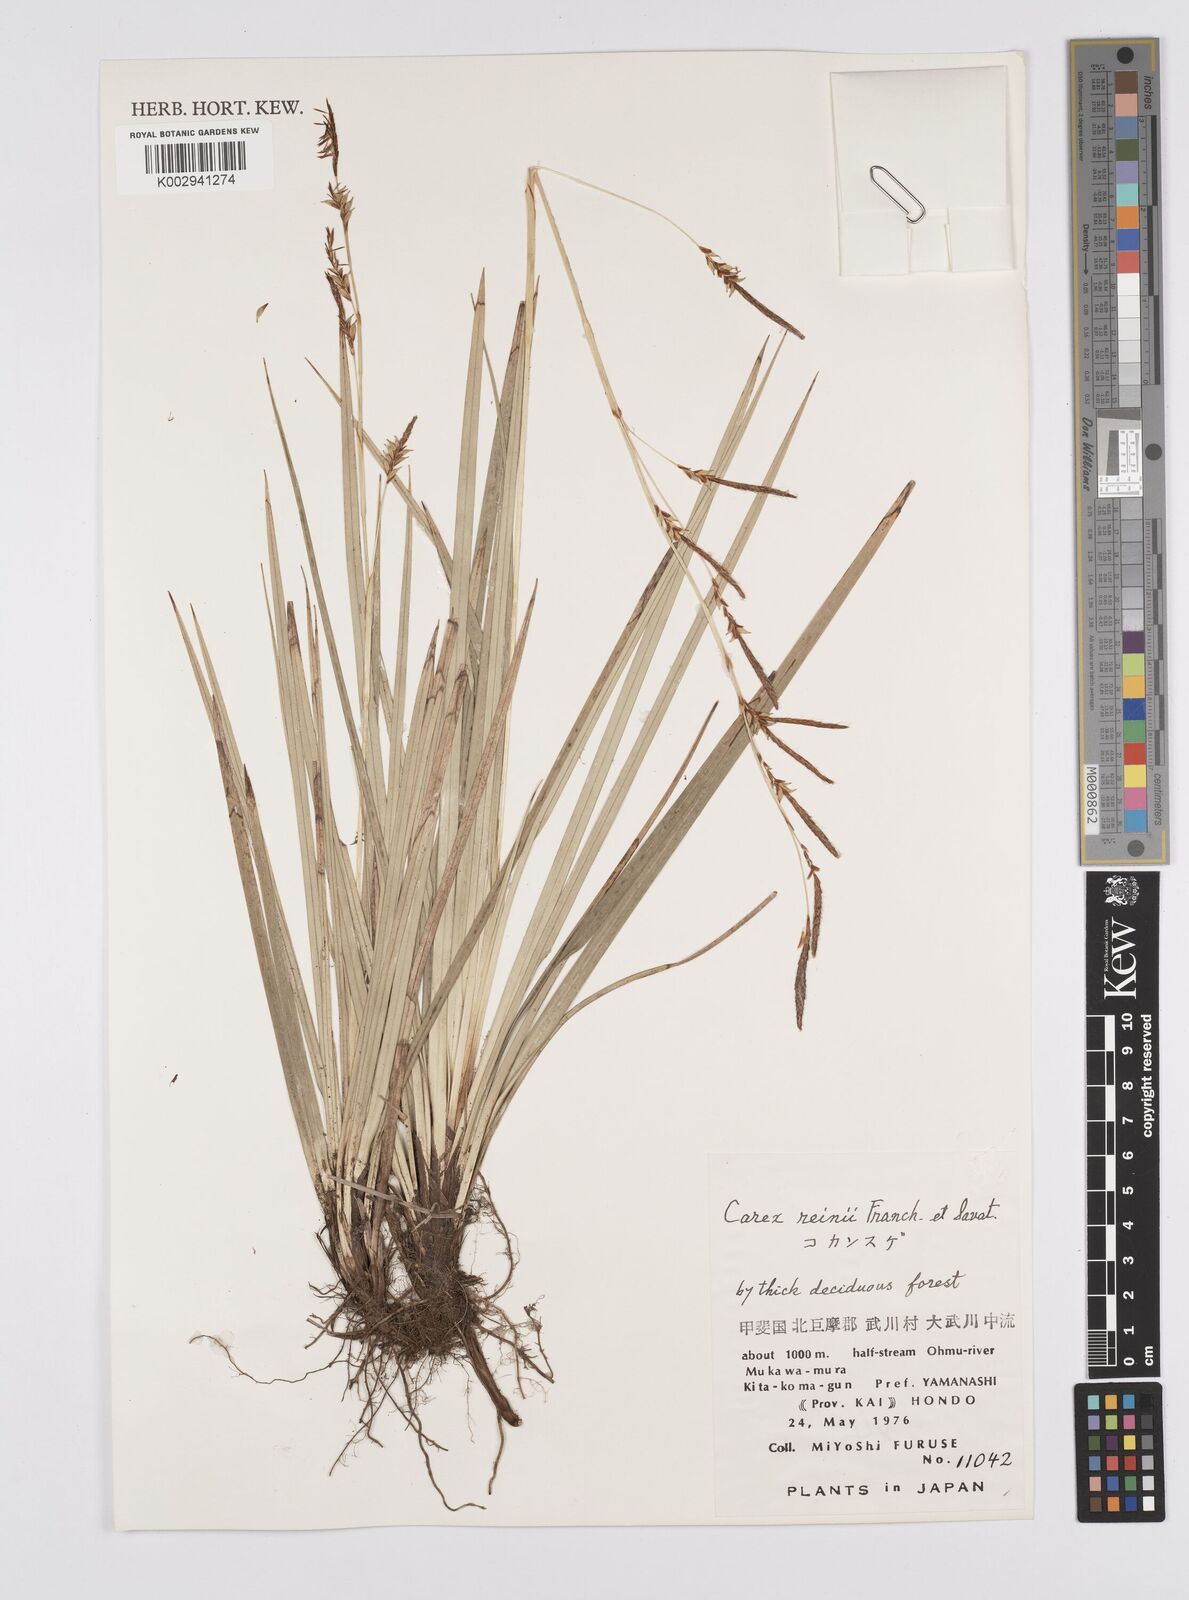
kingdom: Plantae
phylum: Tracheophyta
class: Liliopsida
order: Poales
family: Cyperaceae
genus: Carex
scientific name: Carex reinii
